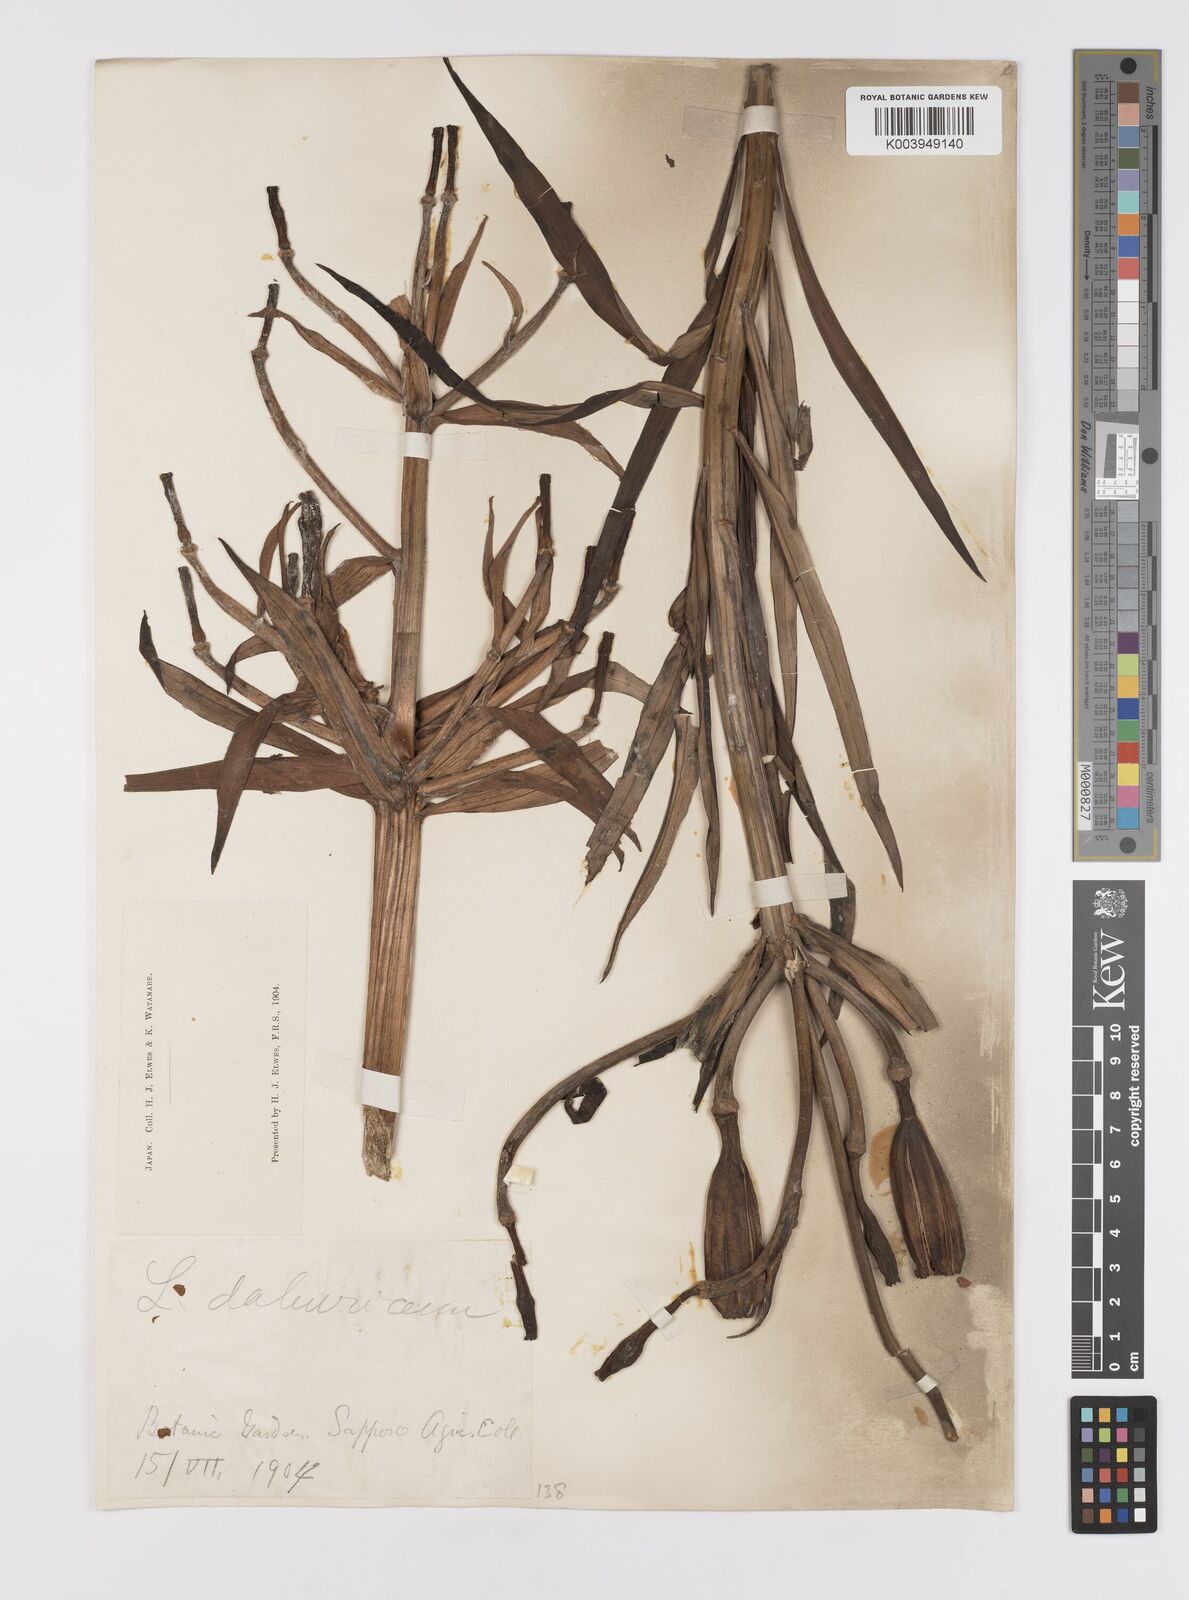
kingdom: Plantae
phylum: Tracheophyta
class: Liliopsida
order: Liliales
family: Liliaceae
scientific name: Liliaceae
